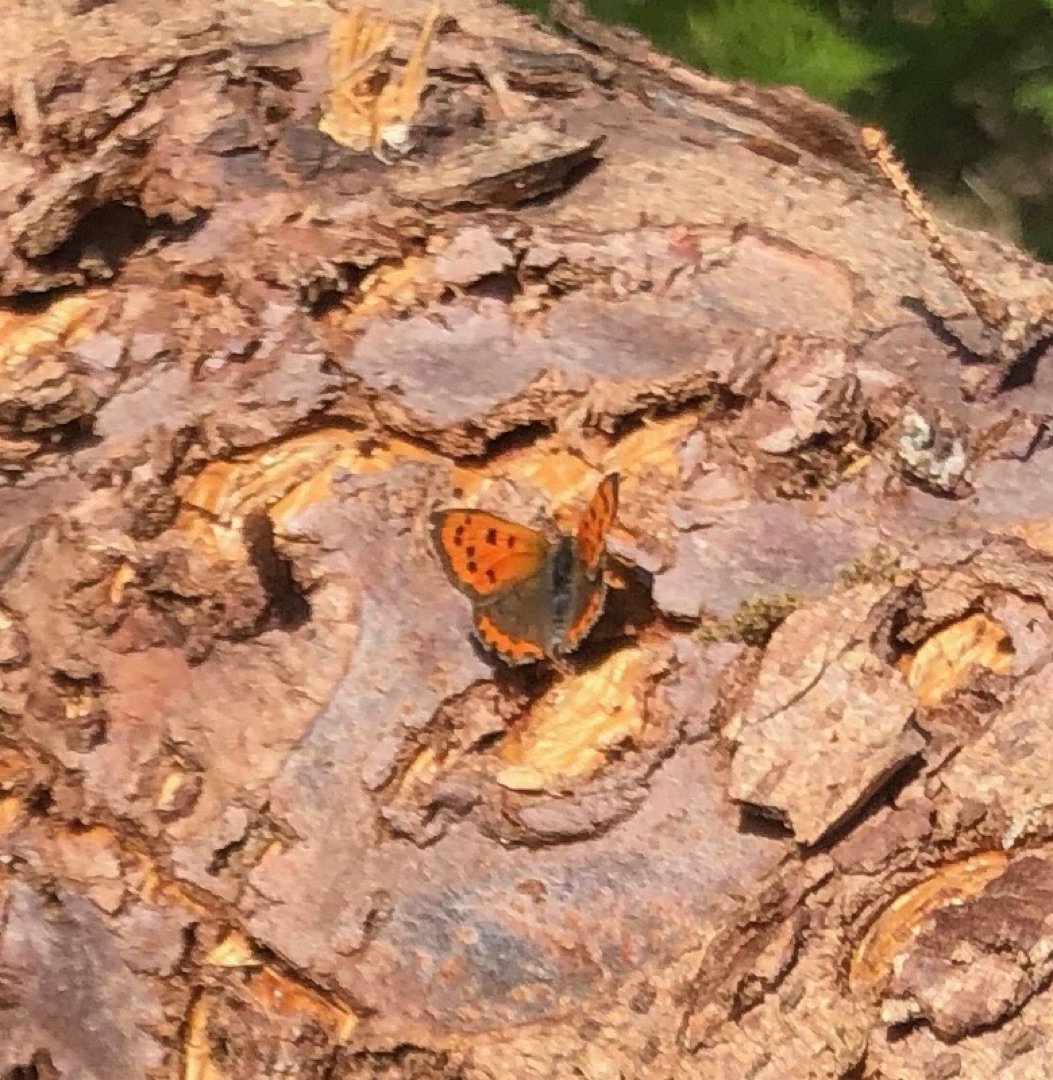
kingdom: Animalia
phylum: Arthropoda
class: Insecta
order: Lepidoptera
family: Lycaenidae
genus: Lycaena
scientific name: Lycaena phlaeas
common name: Lille ildfugl
